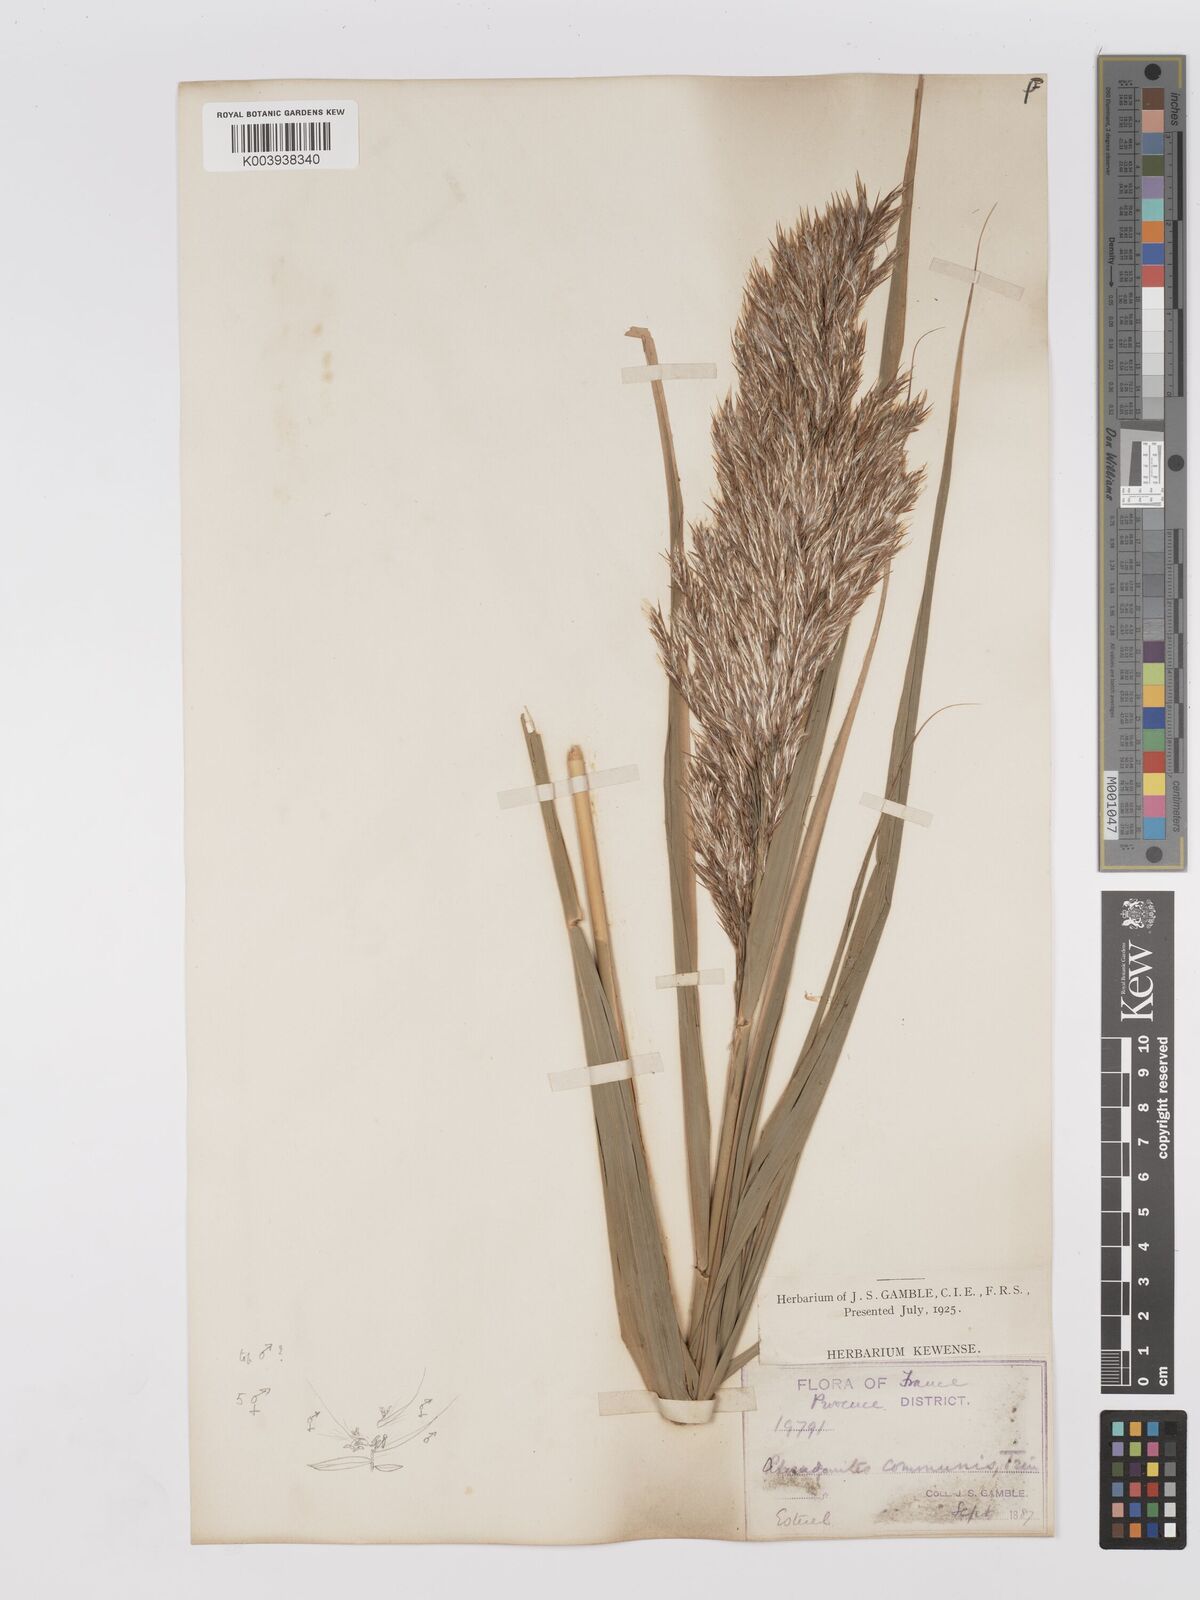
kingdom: Plantae
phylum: Tracheophyta
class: Liliopsida
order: Poales
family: Poaceae
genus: Phragmites
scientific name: Phragmites australis
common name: Common reed
